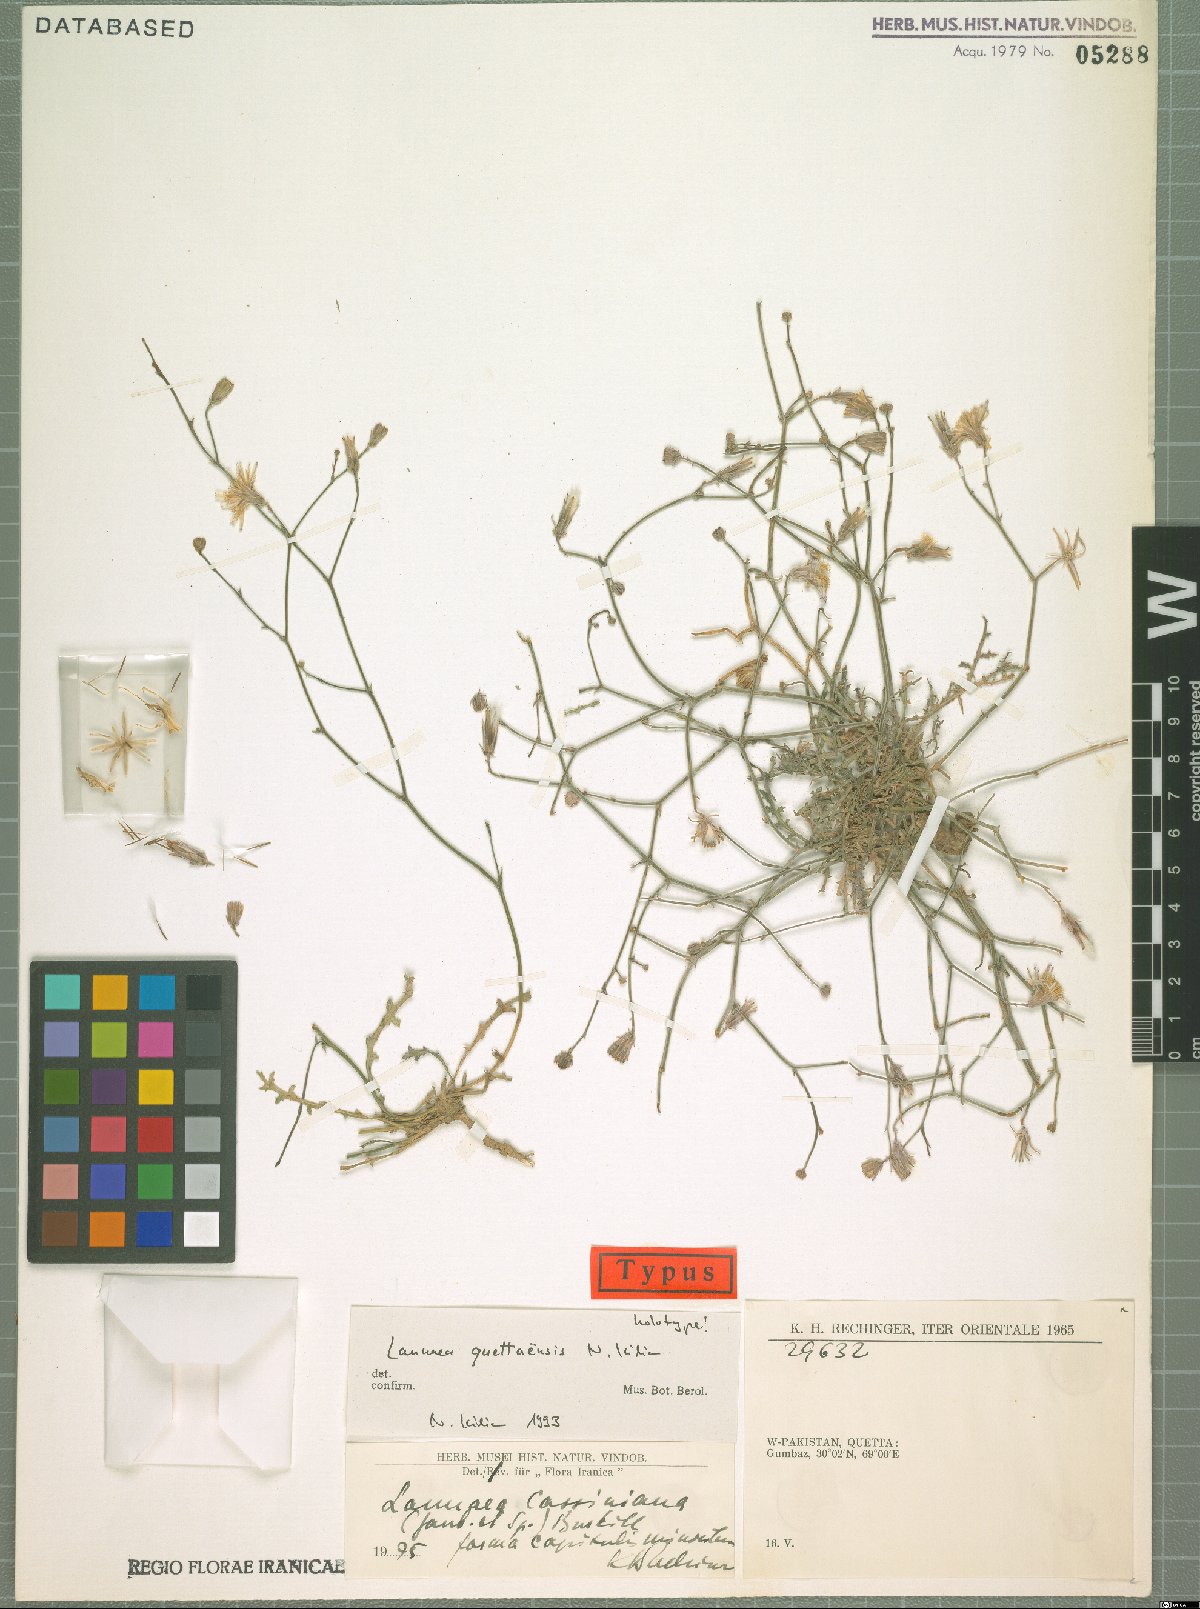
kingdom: Plantae
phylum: Tracheophyta
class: Magnoliopsida
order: Asterales
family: Asteraceae
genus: Launaea
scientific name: Launaea quettaensis
